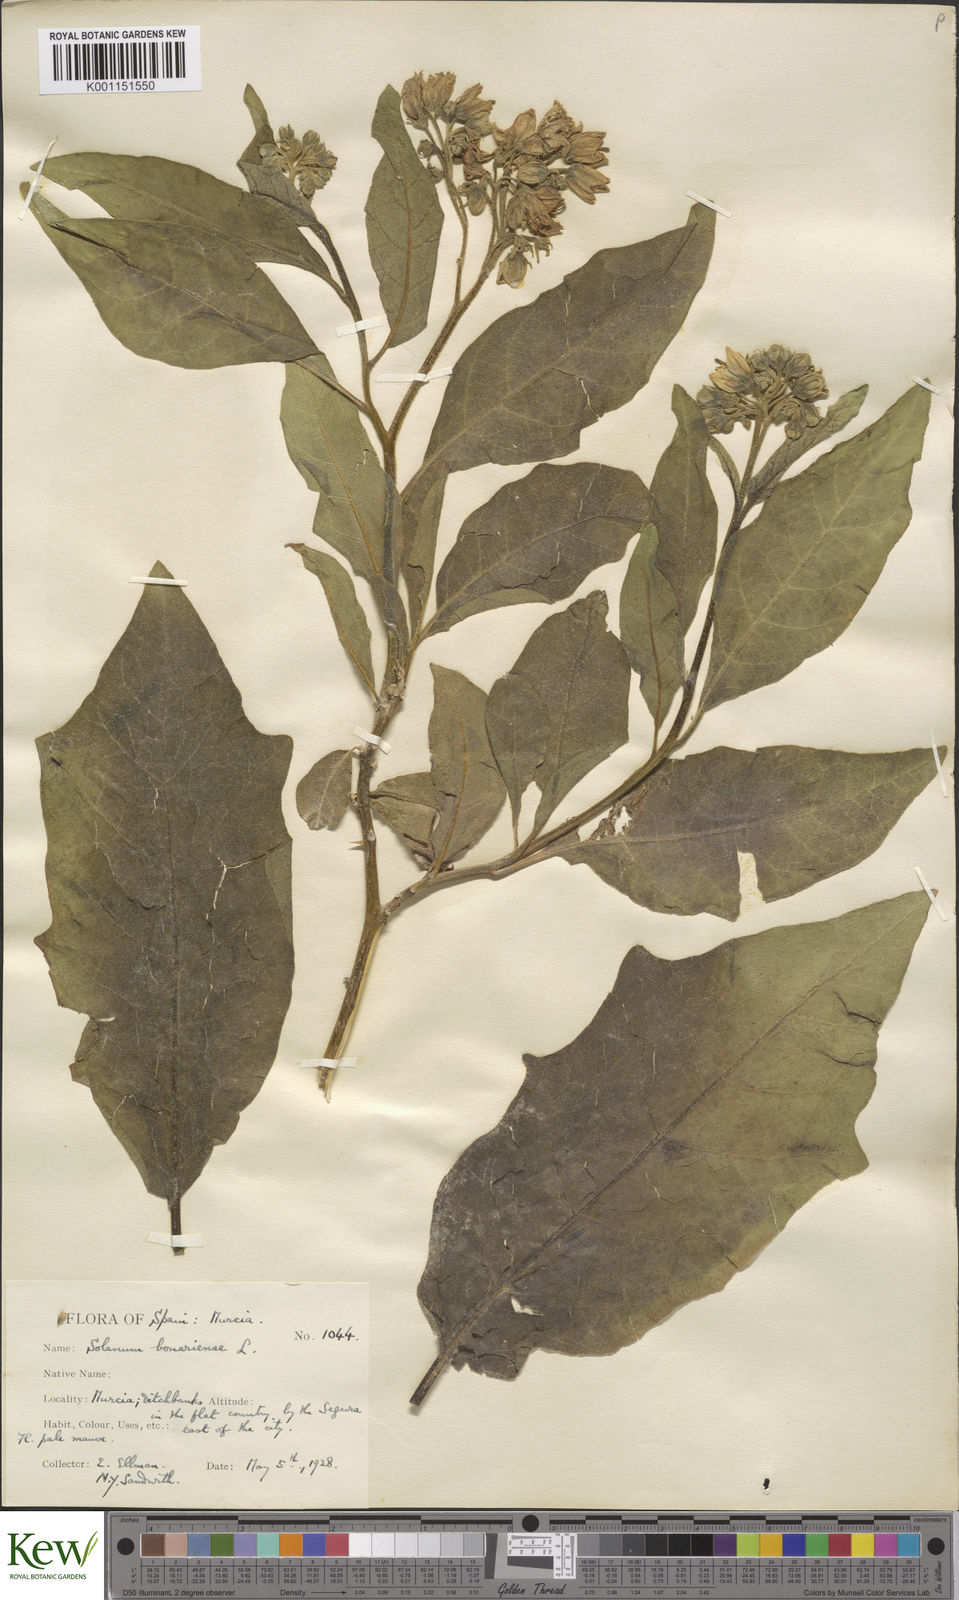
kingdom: Plantae
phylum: Tracheophyta
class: Magnoliopsida
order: Solanales
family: Solanaceae
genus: Solanum
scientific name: Solanum bonariense
